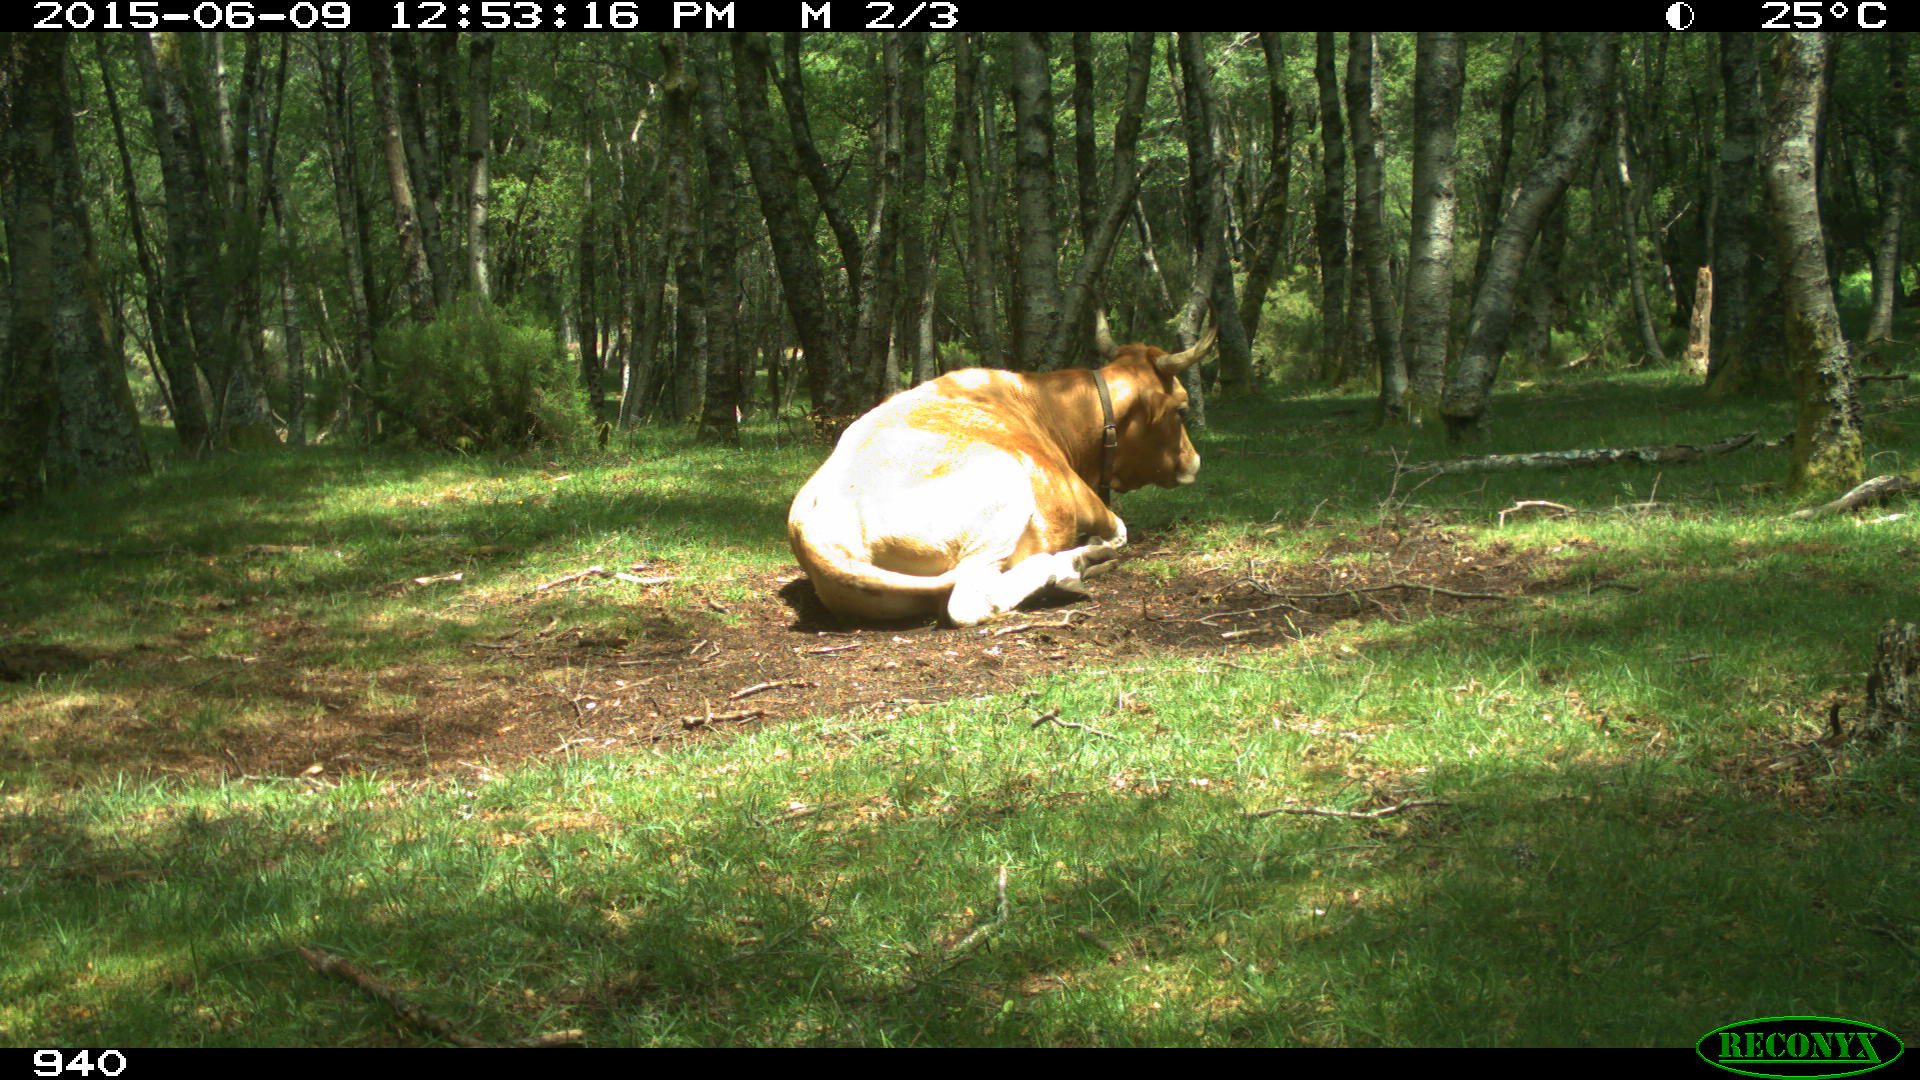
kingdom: Animalia
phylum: Chordata
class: Mammalia
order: Artiodactyla
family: Bovidae
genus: Bos
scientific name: Bos taurus
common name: Domesticated cattle
